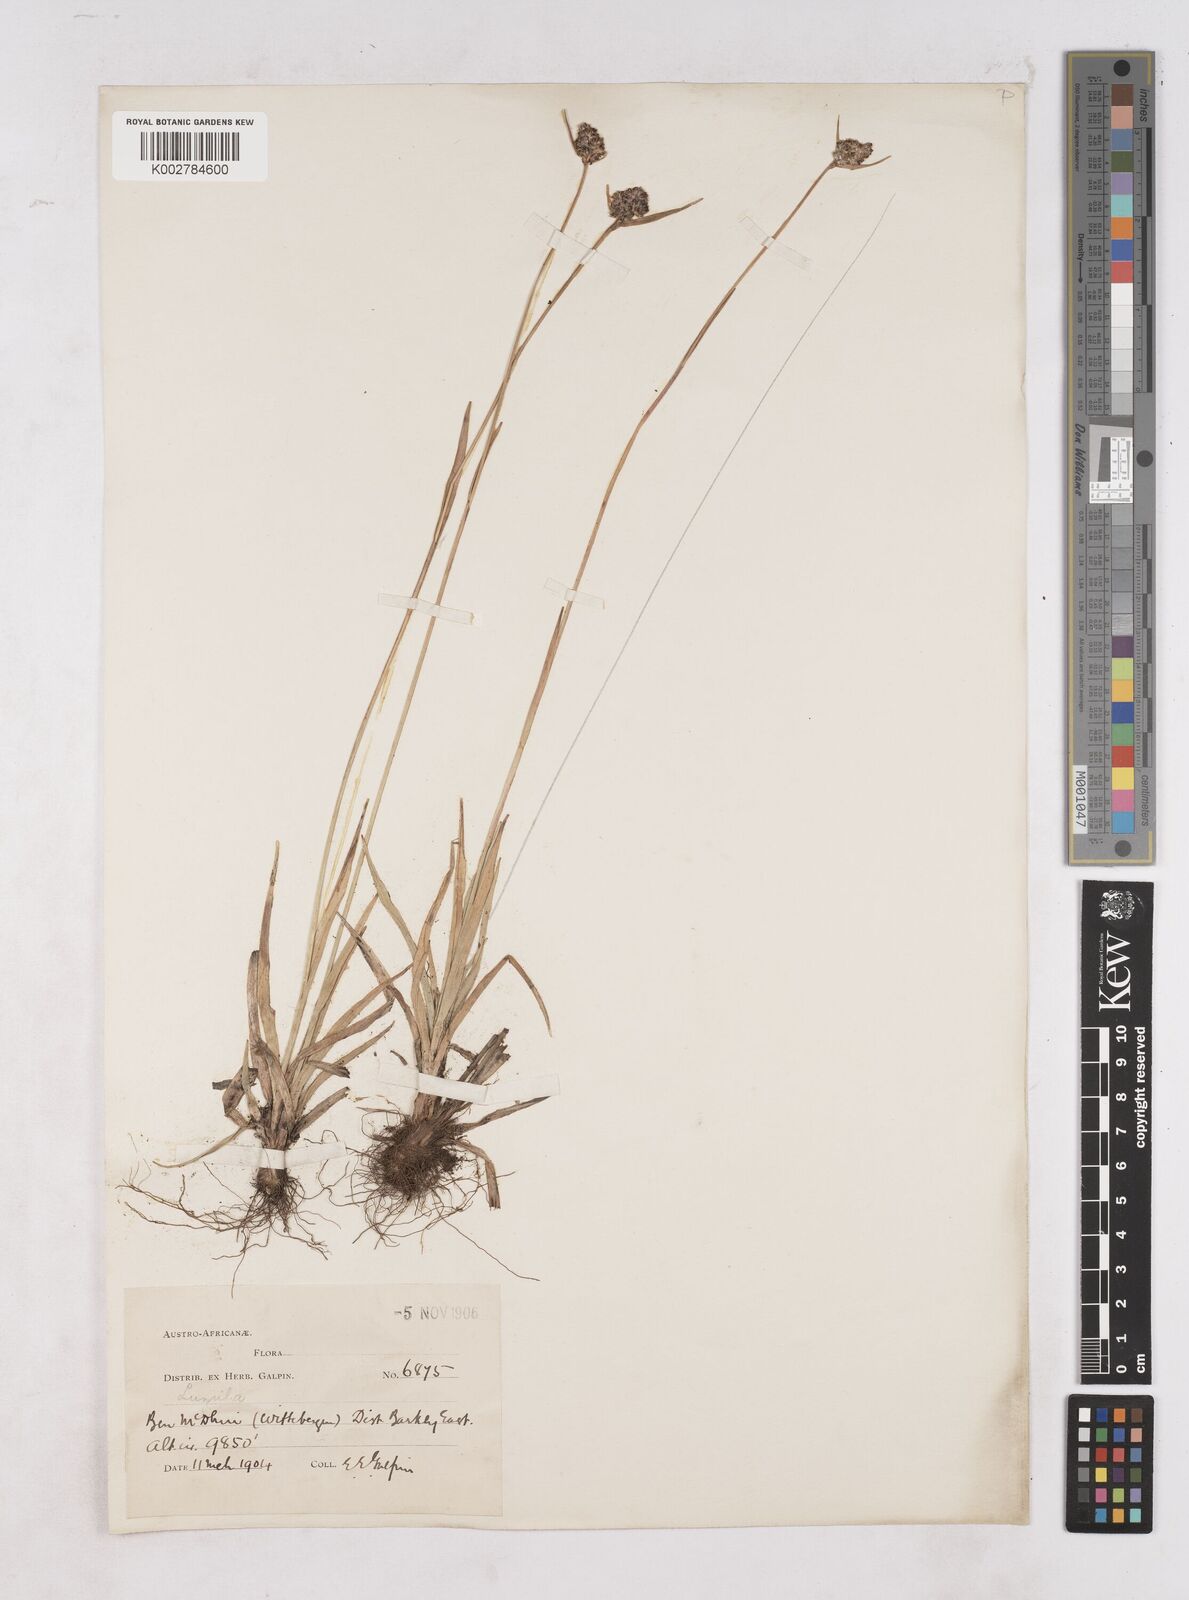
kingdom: Plantae
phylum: Tracheophyta
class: Liliopsida
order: Poales
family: Juncaceae
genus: Luzula
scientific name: Luzula
